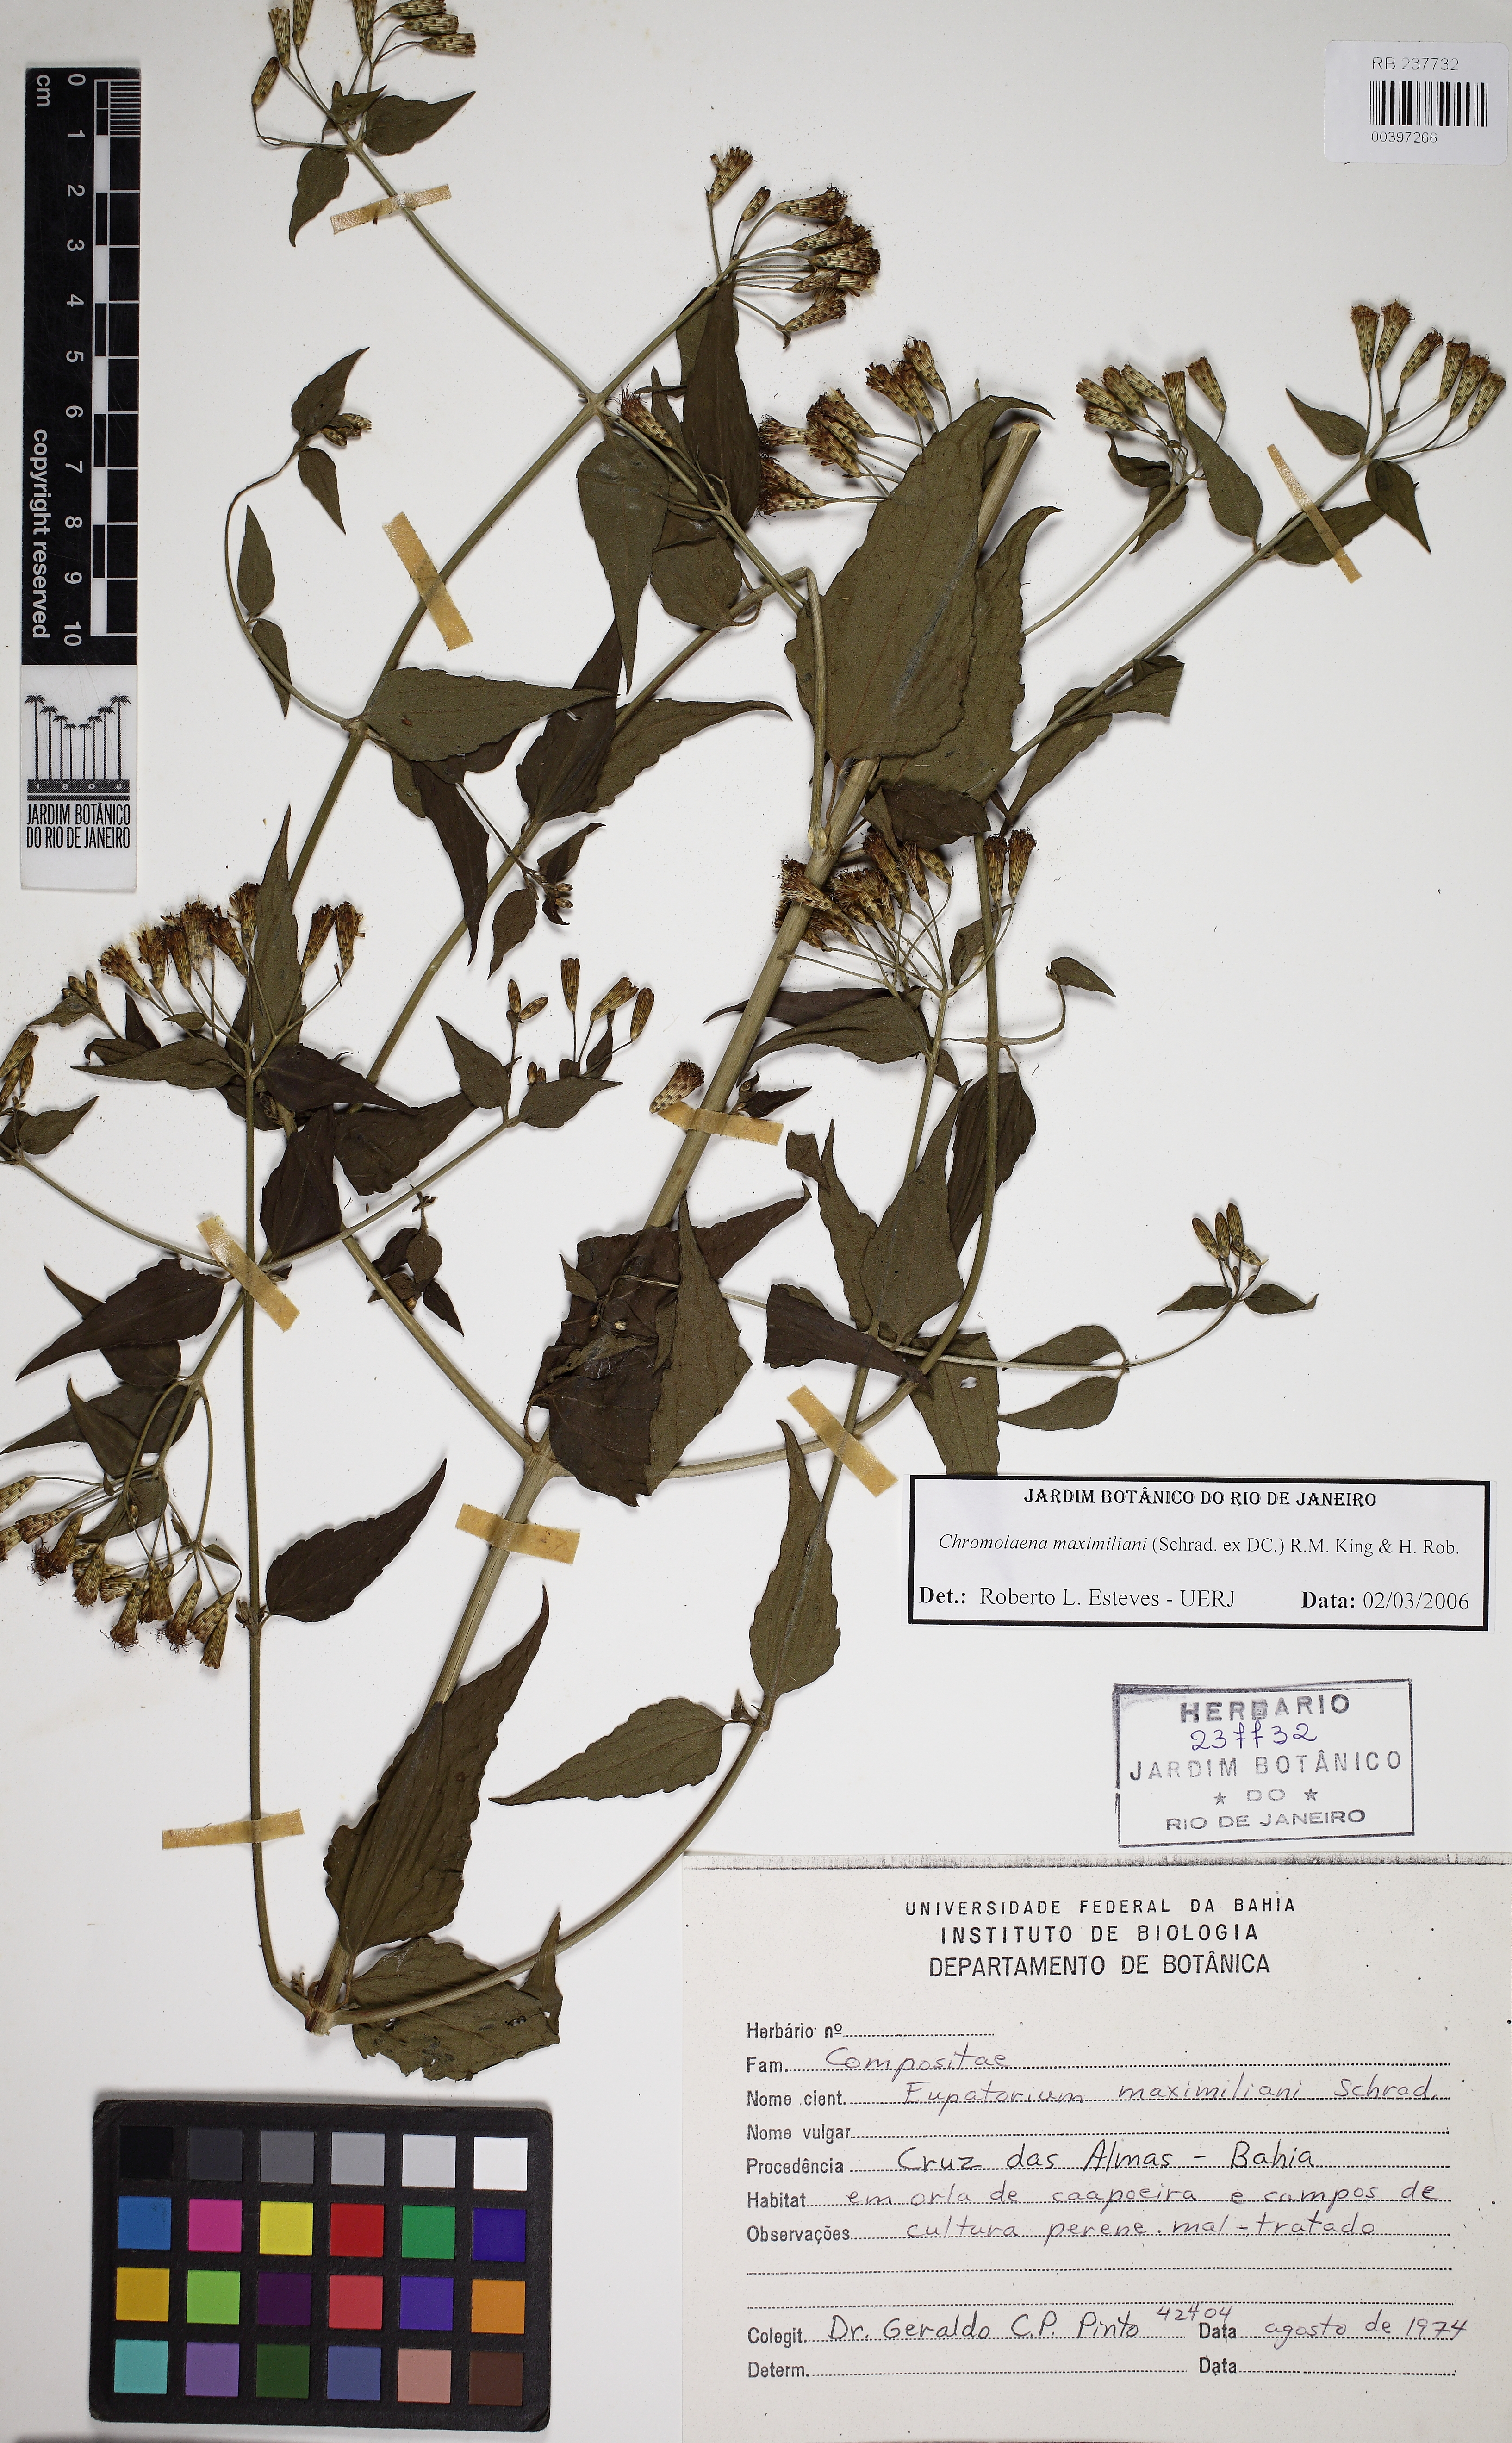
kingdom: Plantae
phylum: Tracheophyta
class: Magnoliopsida
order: Asterales
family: Asteraceae
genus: Chromolaena
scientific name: Chromolaena maximiliani
